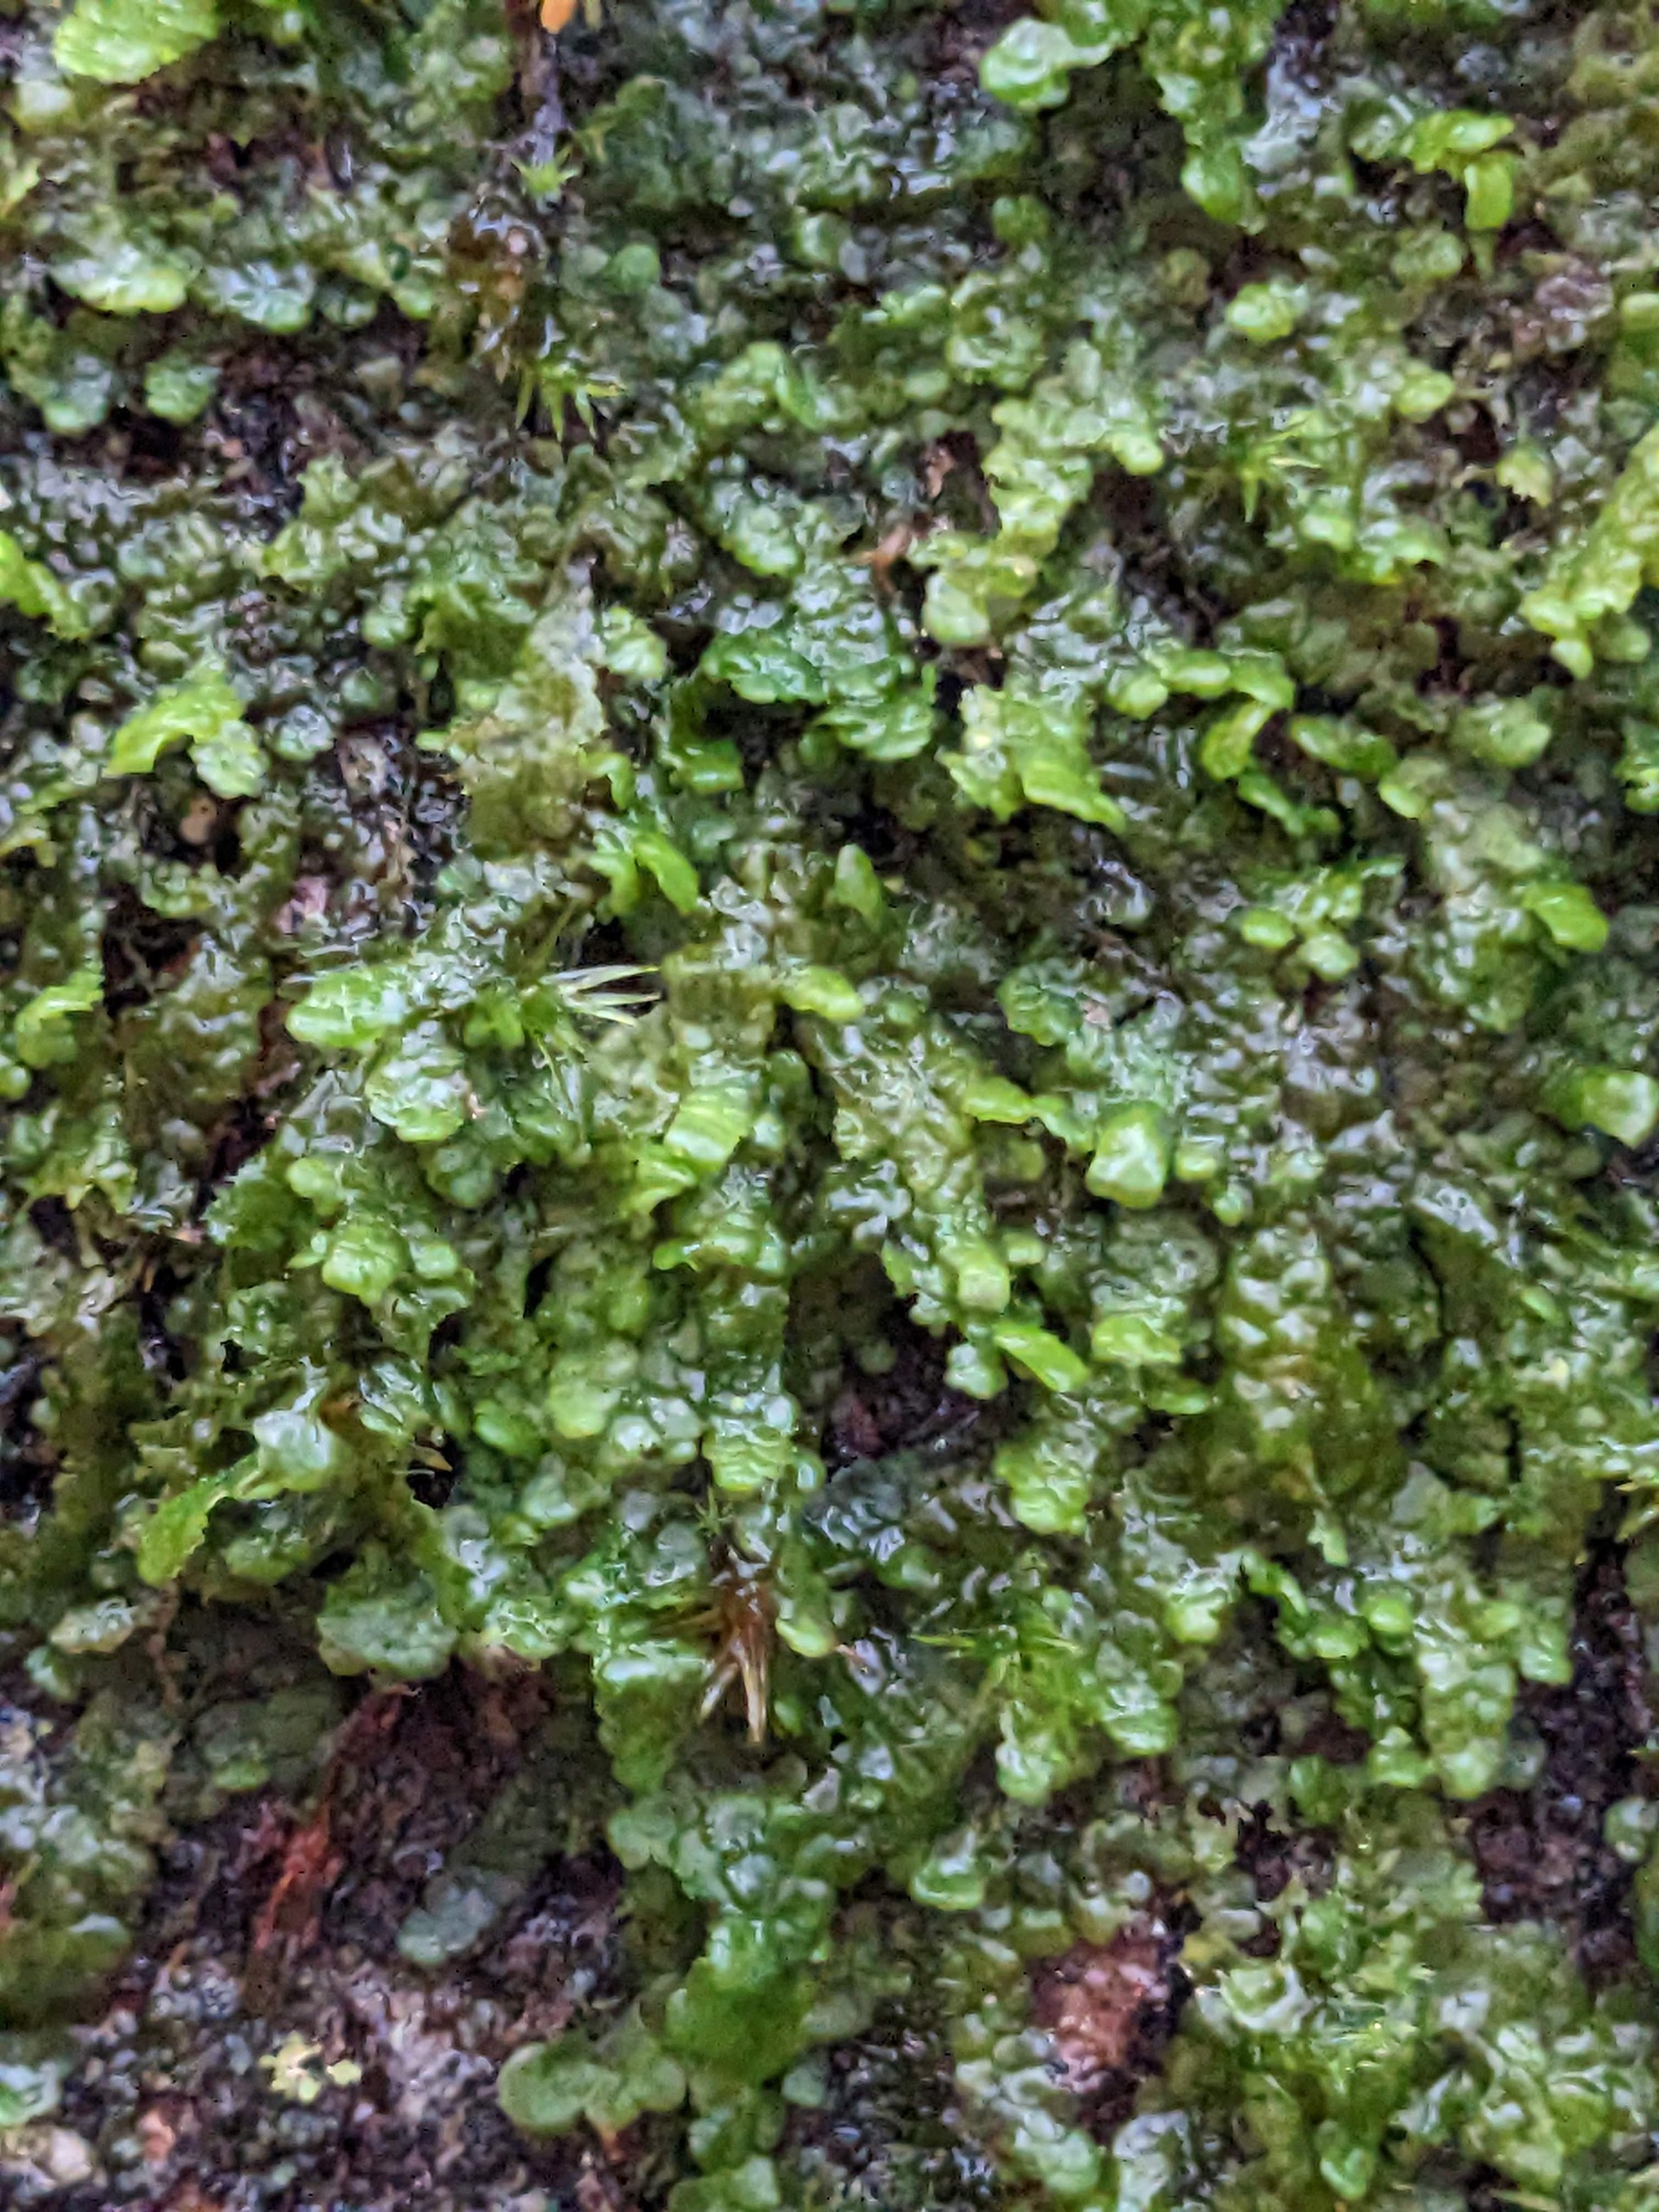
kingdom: Plantae
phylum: Marchantiophyta
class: Jungermanniopsida
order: Porellales
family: Radulaceae
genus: Radula
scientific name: Radula complanata
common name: Almindelig spartelmos
